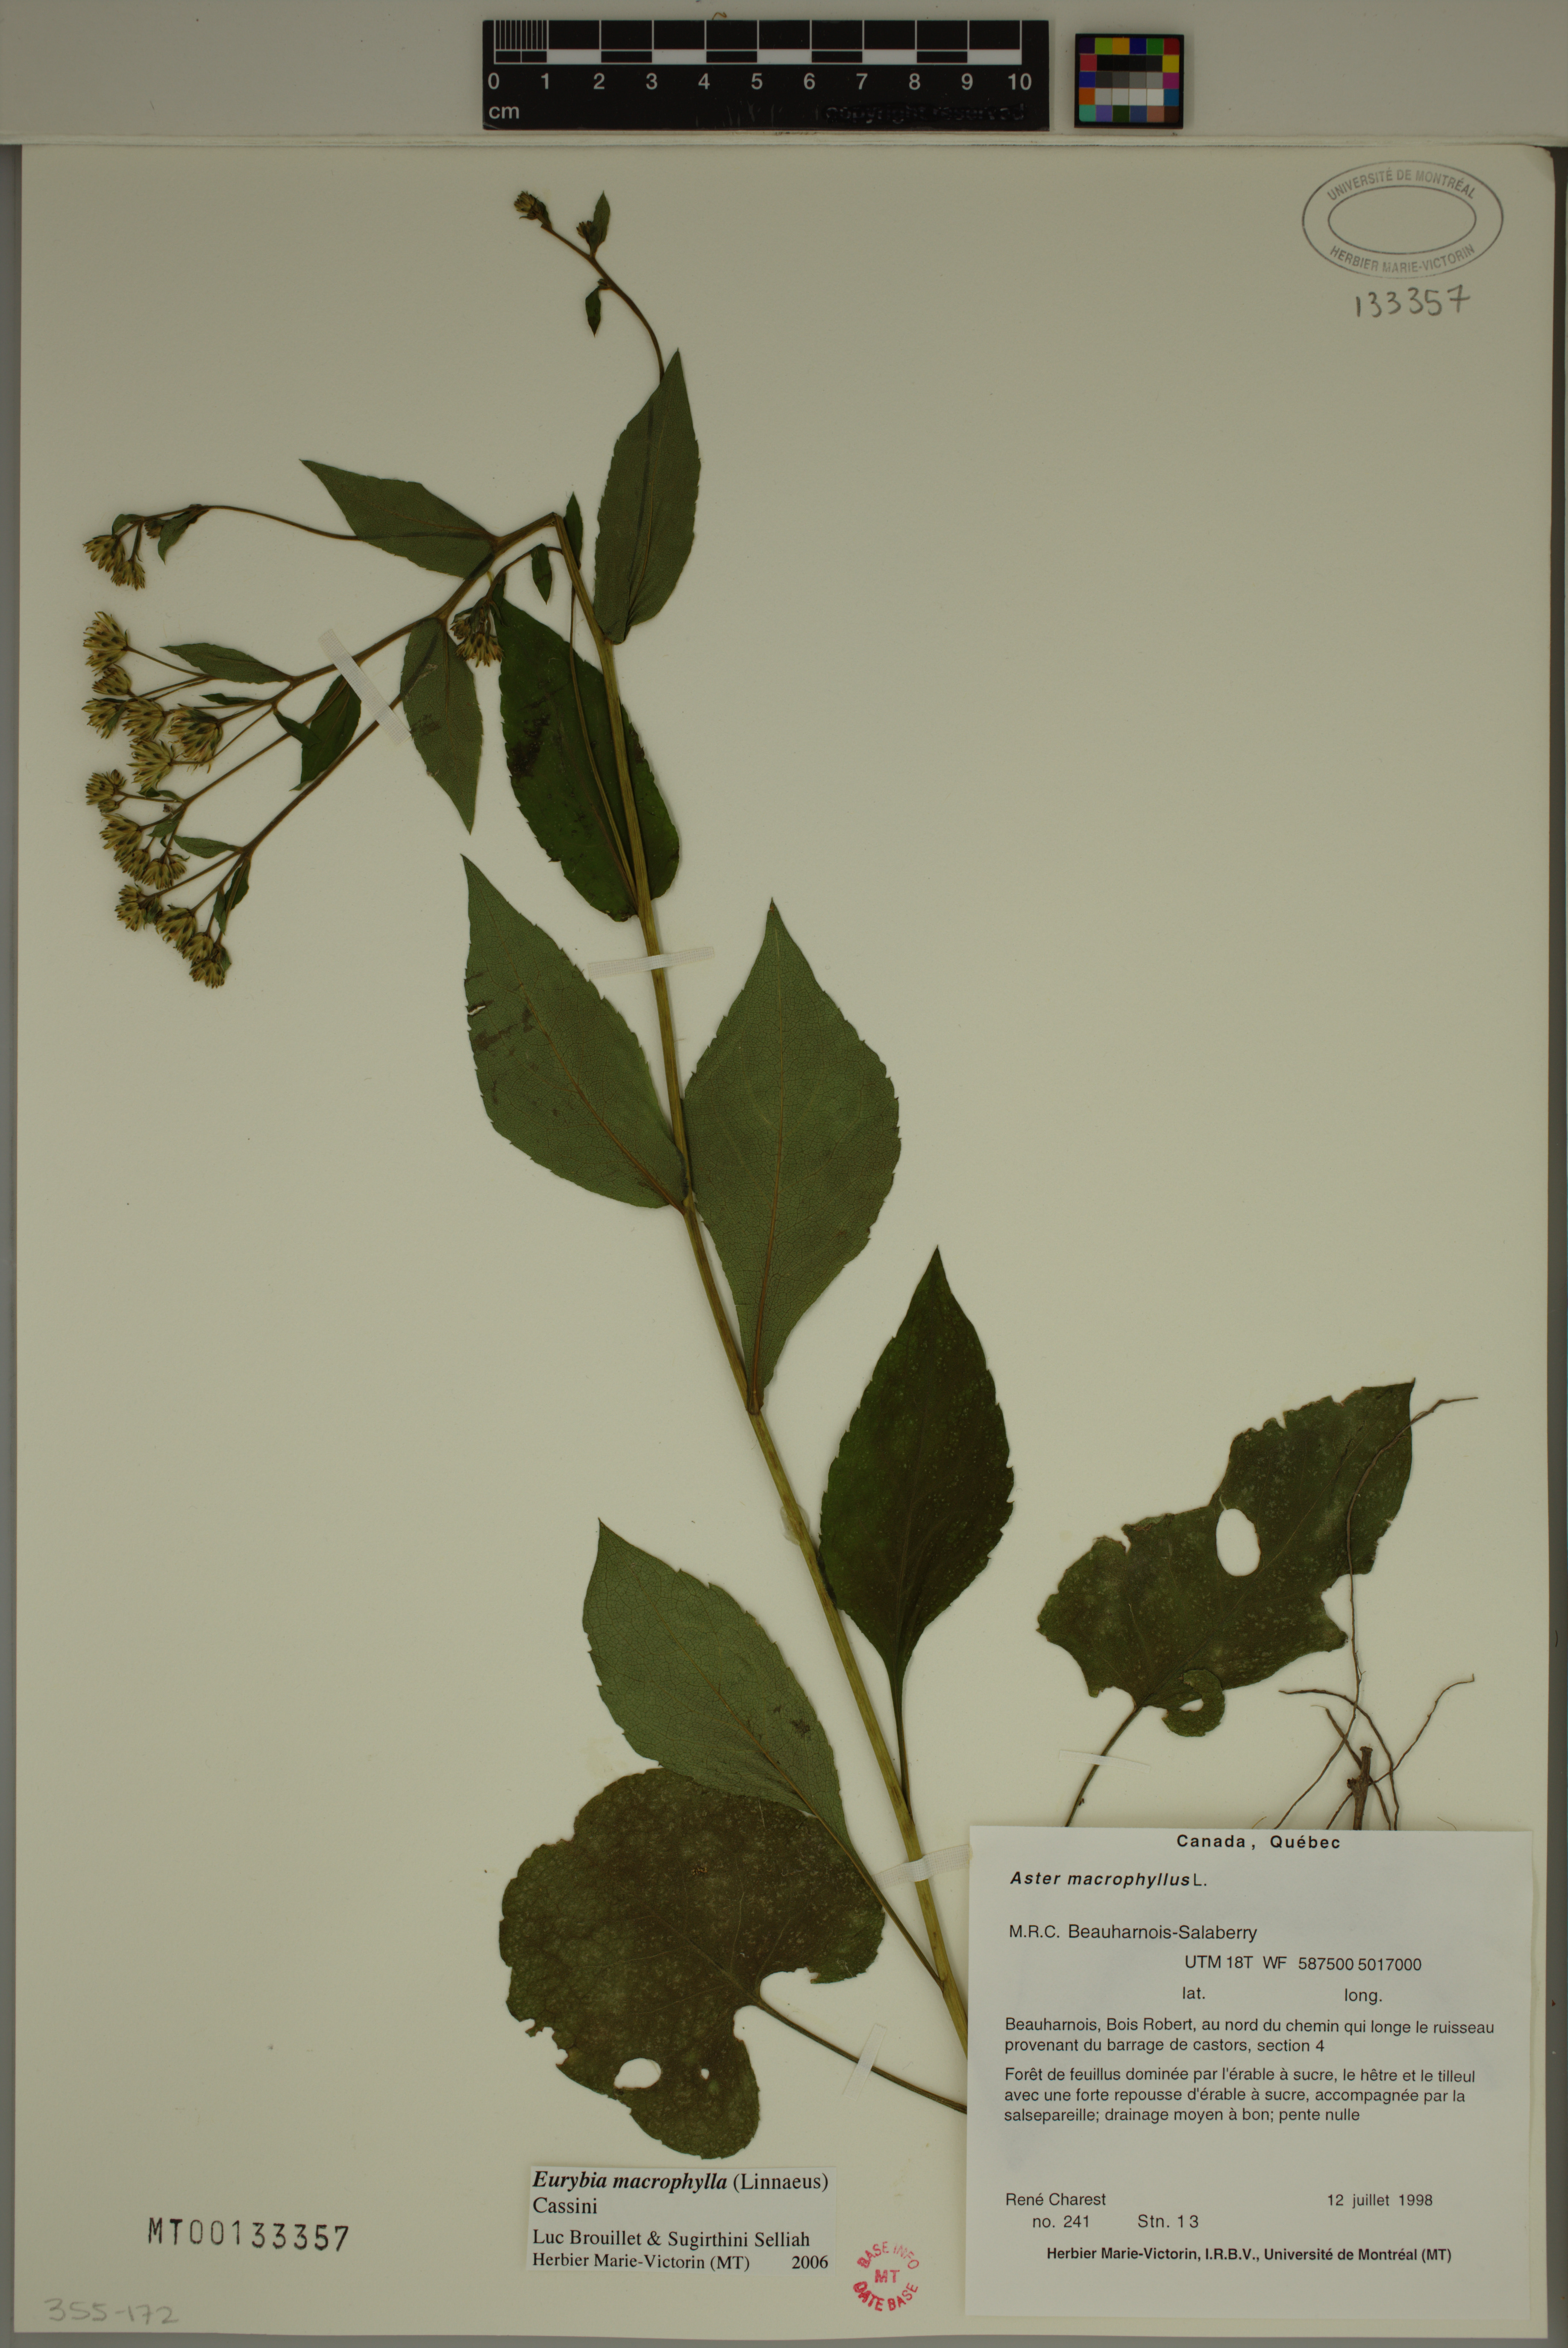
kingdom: Plantae
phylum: Tracheophyta
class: Magnoliopsida
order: Asterales
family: Asteraceae
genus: Eurybia
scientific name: Eurybia macrophylla
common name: Big-leaved aster
